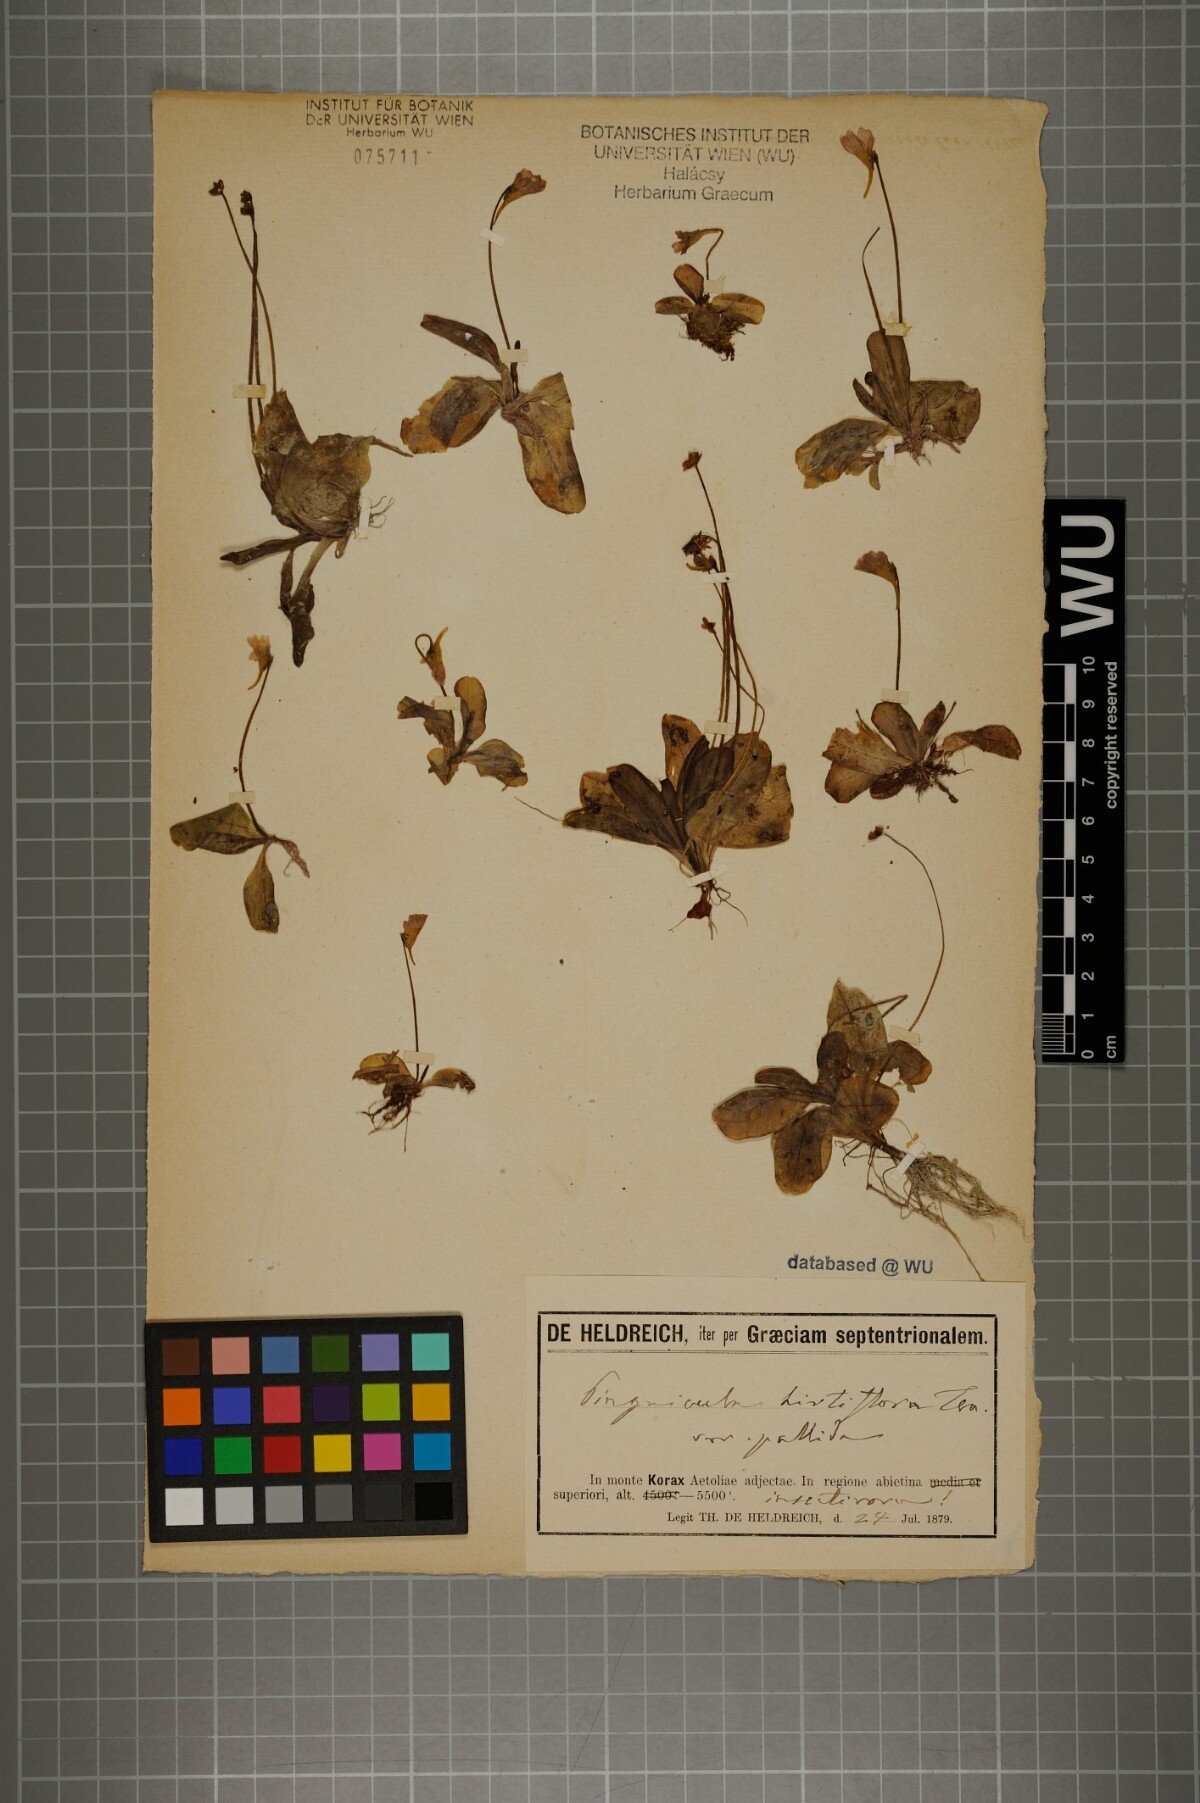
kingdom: Plantae
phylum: Tracheophyta
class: Magnoliopsida
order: Lamiales
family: Lentibulariaceae
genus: Pinguicula
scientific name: Pinguicula crystallina
